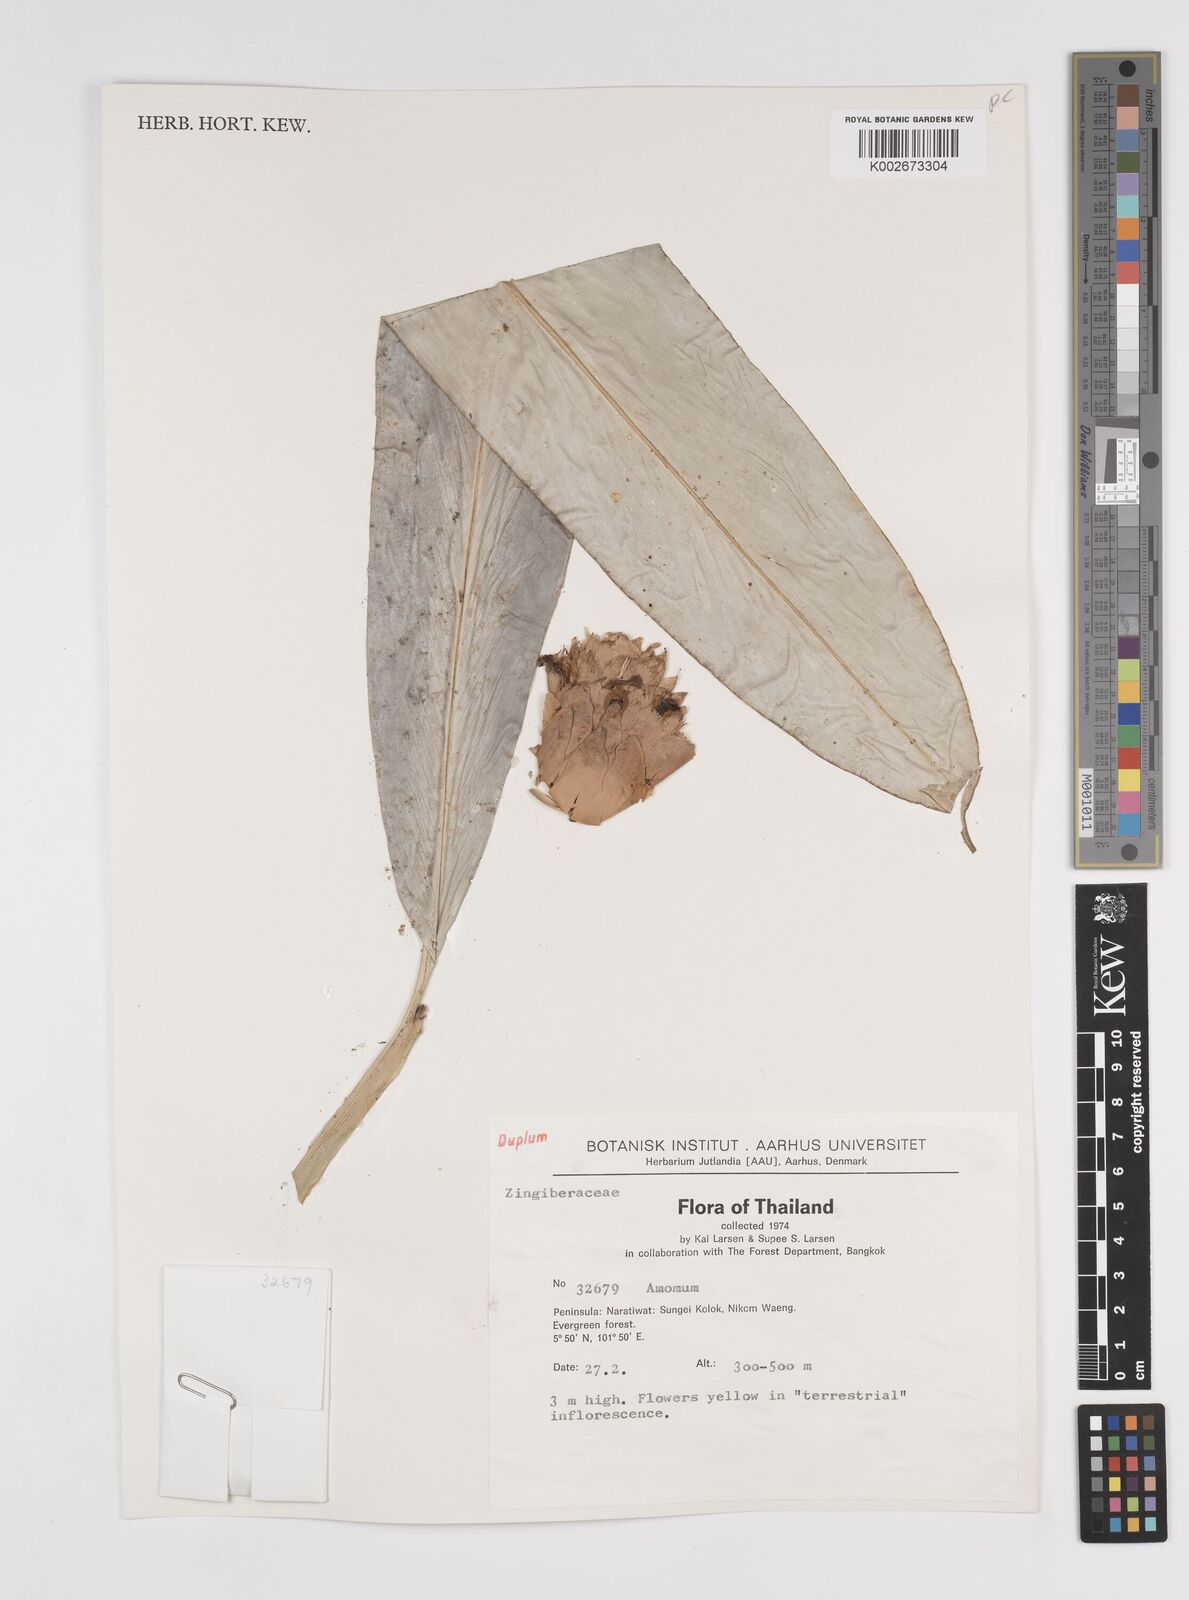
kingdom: Plantae
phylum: Tracheophyta
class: Liliopsida
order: Zingiberales
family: Zingiberaceae
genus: Amomum
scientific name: Amomum
